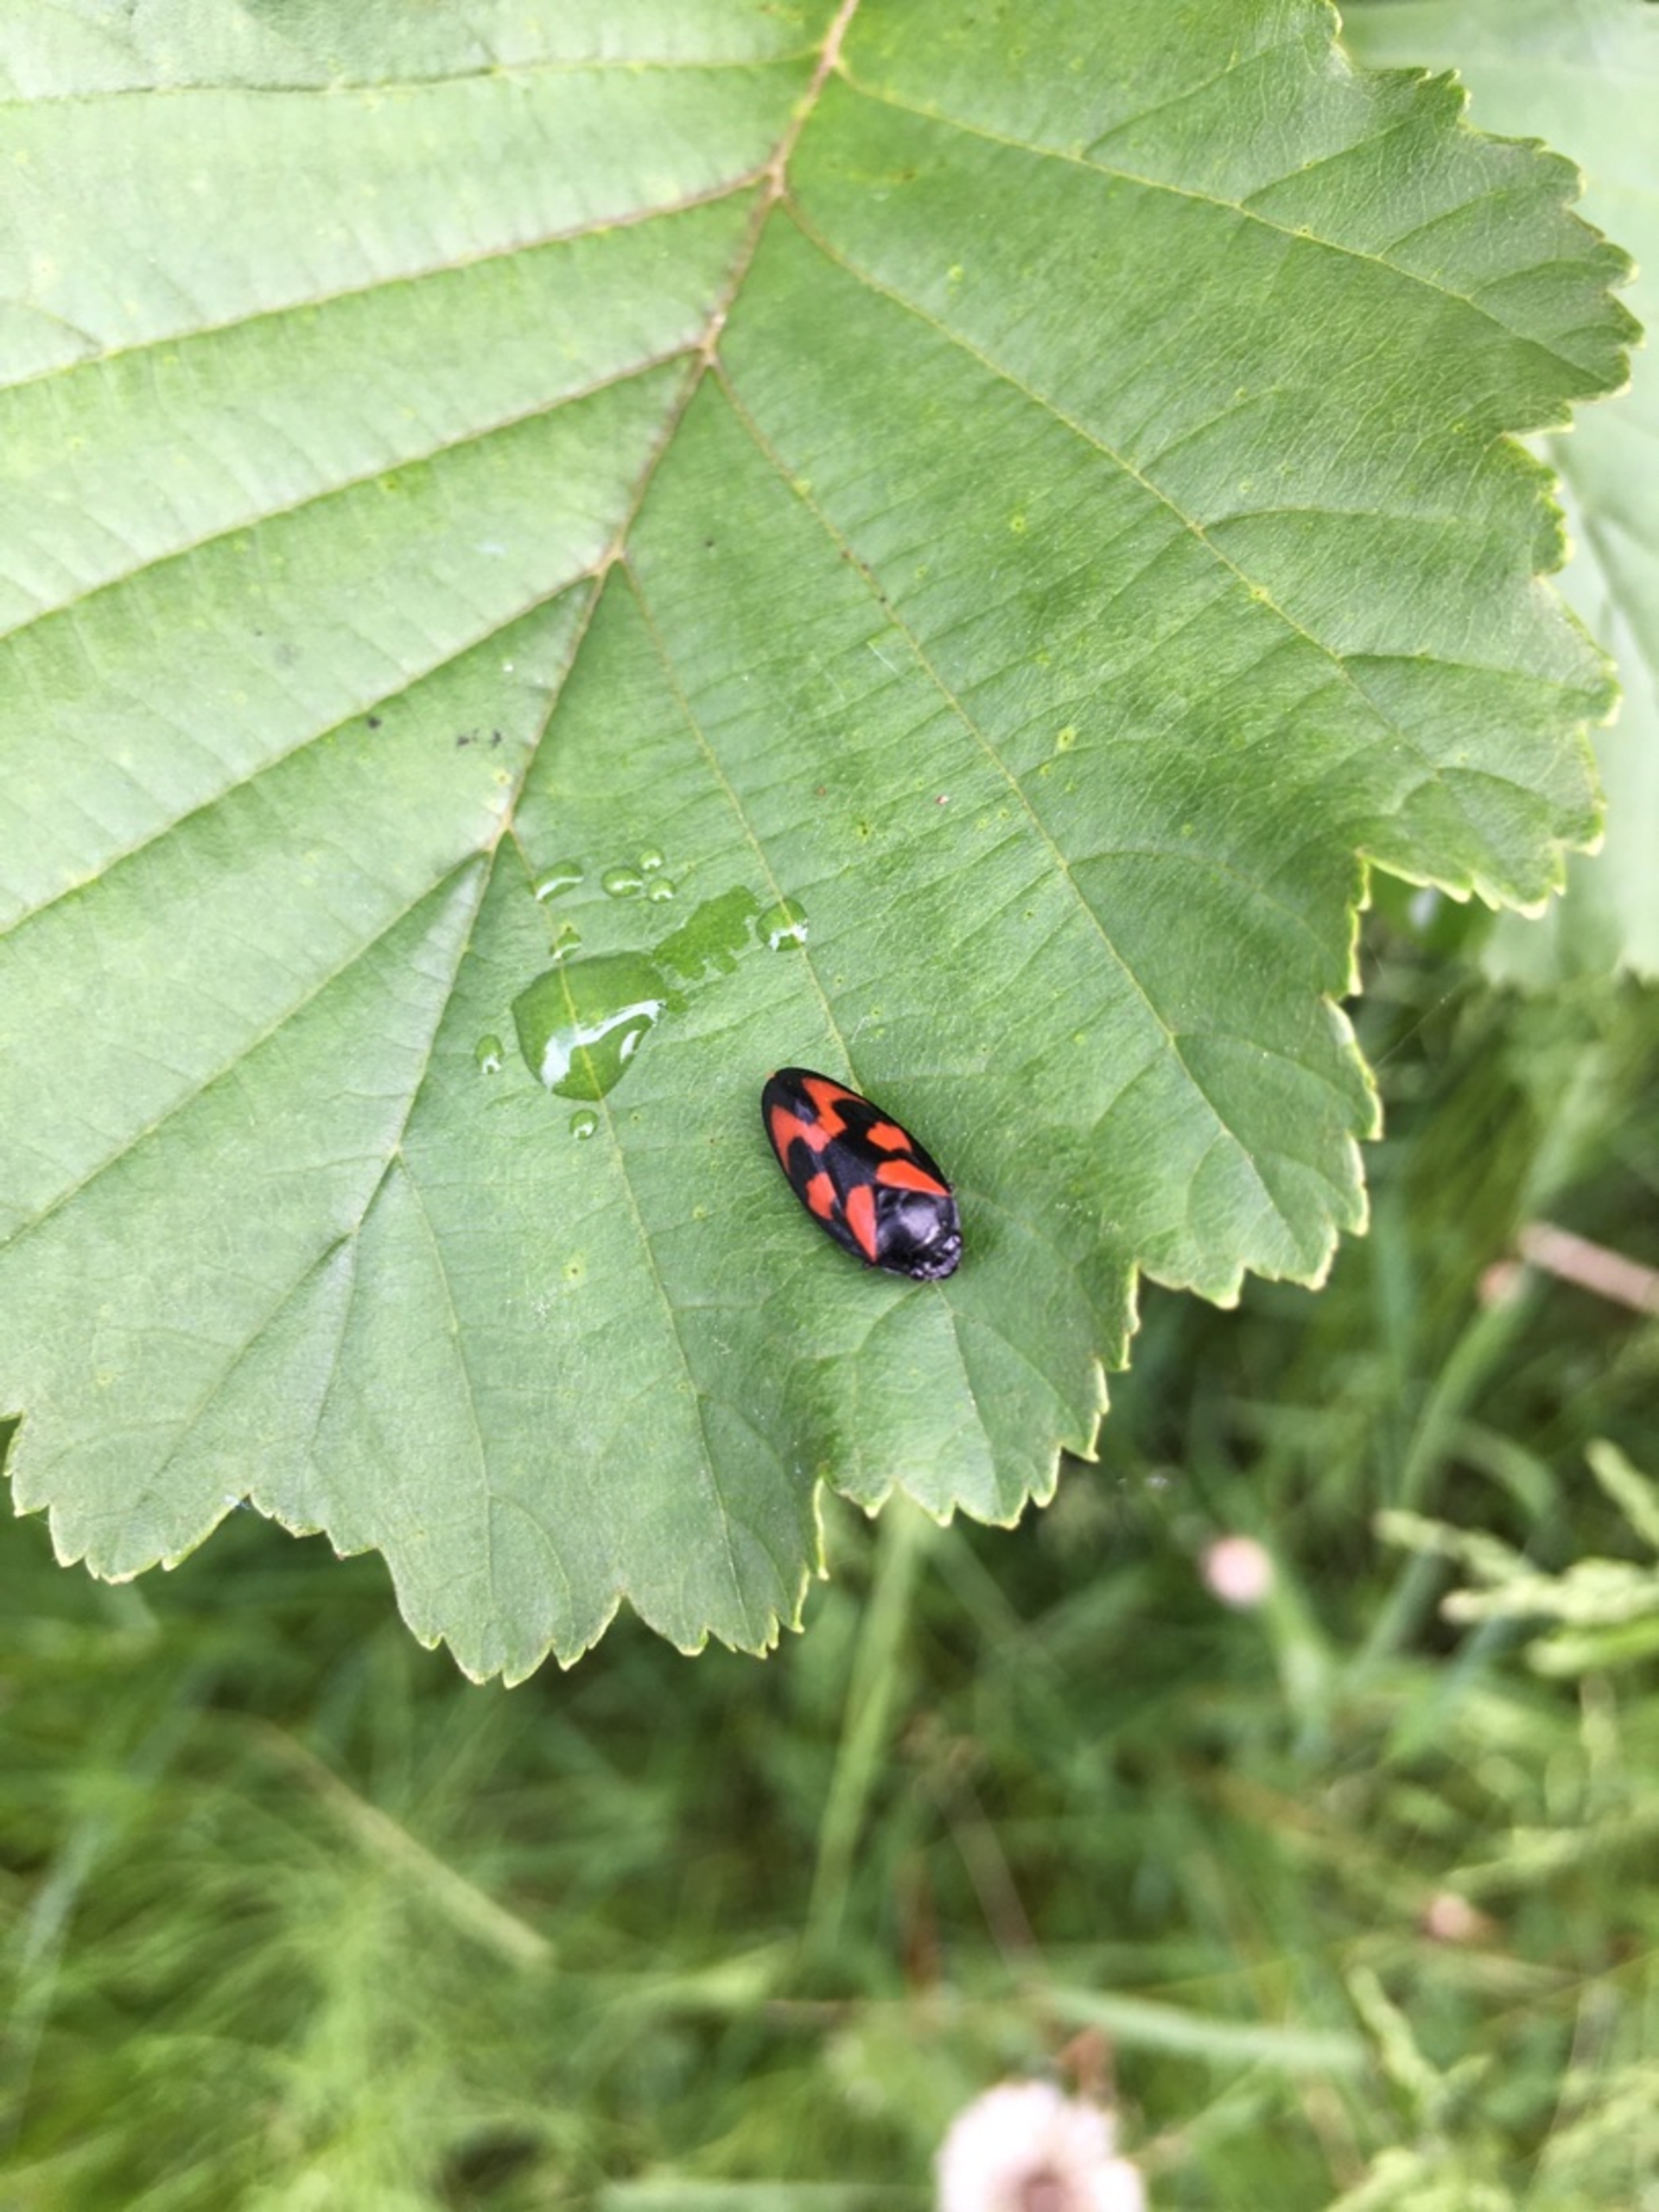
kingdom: Animalia
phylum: Arthropoda
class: Insecta
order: Hemiptera
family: Cercopidae
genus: Cercopis
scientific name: Cercopis vulnerata
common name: Blodcikade
